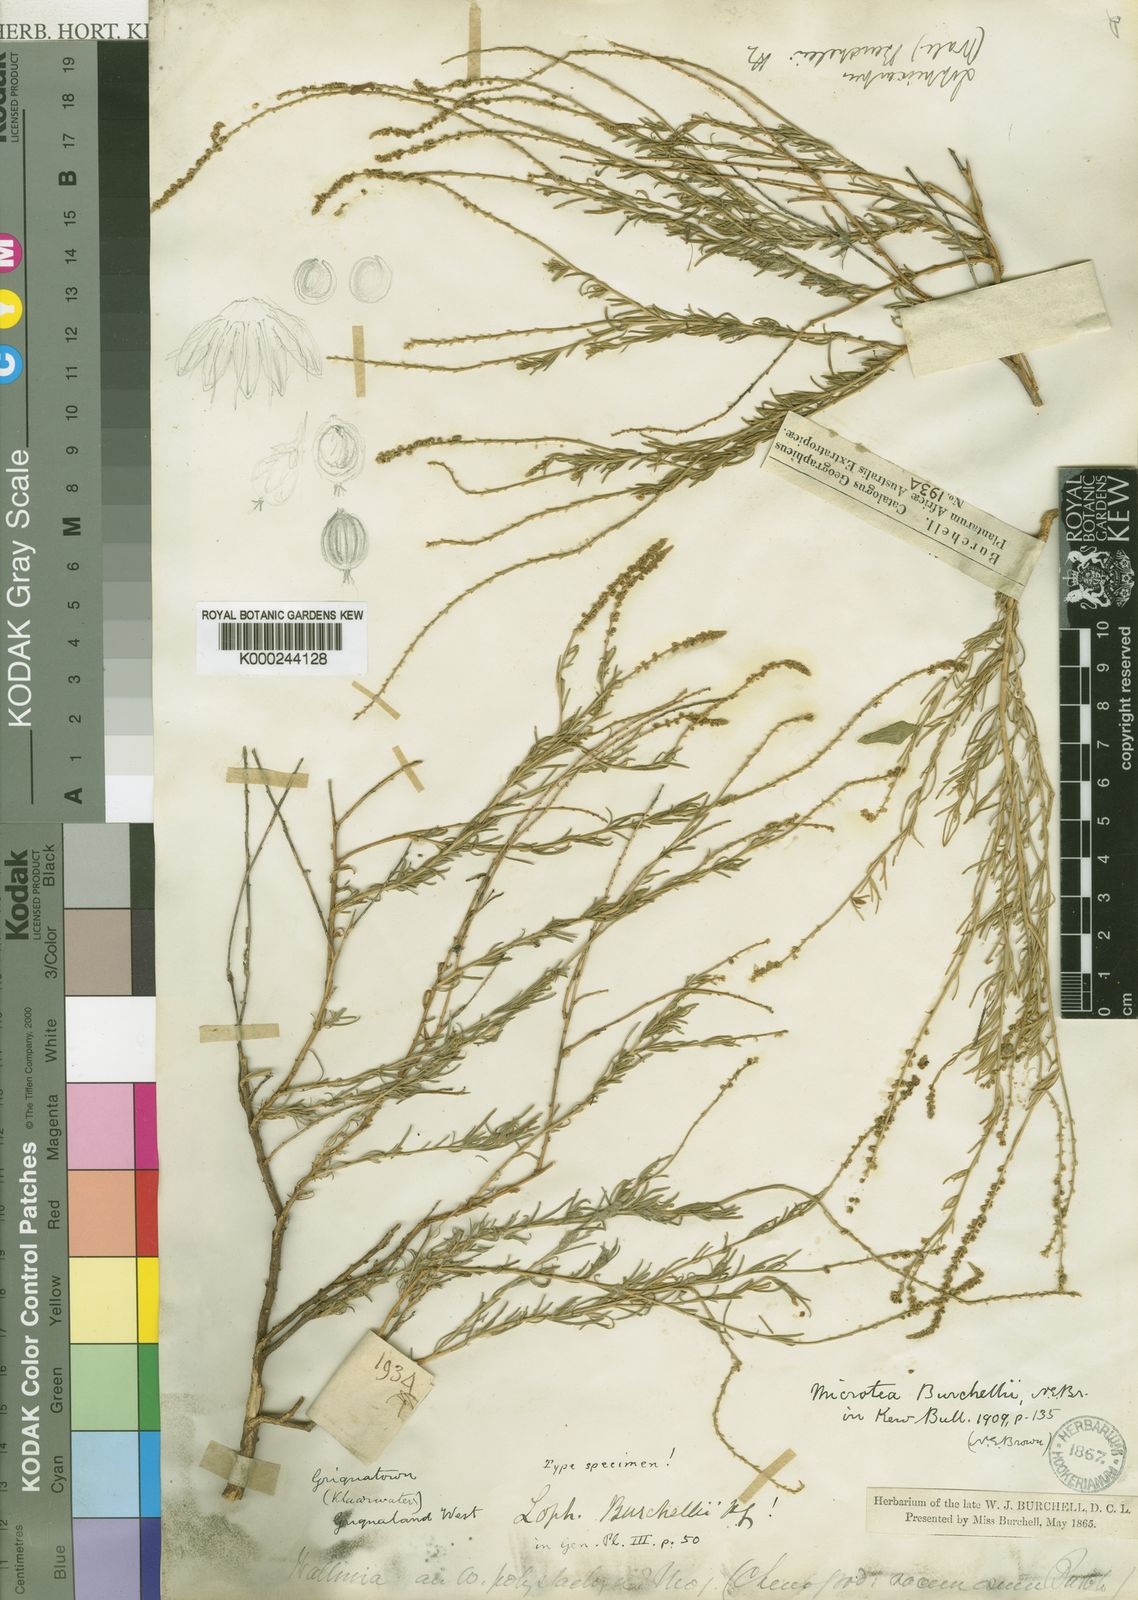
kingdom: Plantae
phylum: Tracheophyta
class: Magnoliopsida
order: Caryophyllales
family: Lophiocarpaceae
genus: Lophiocarpus
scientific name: Lophiocarpus polystachyus
